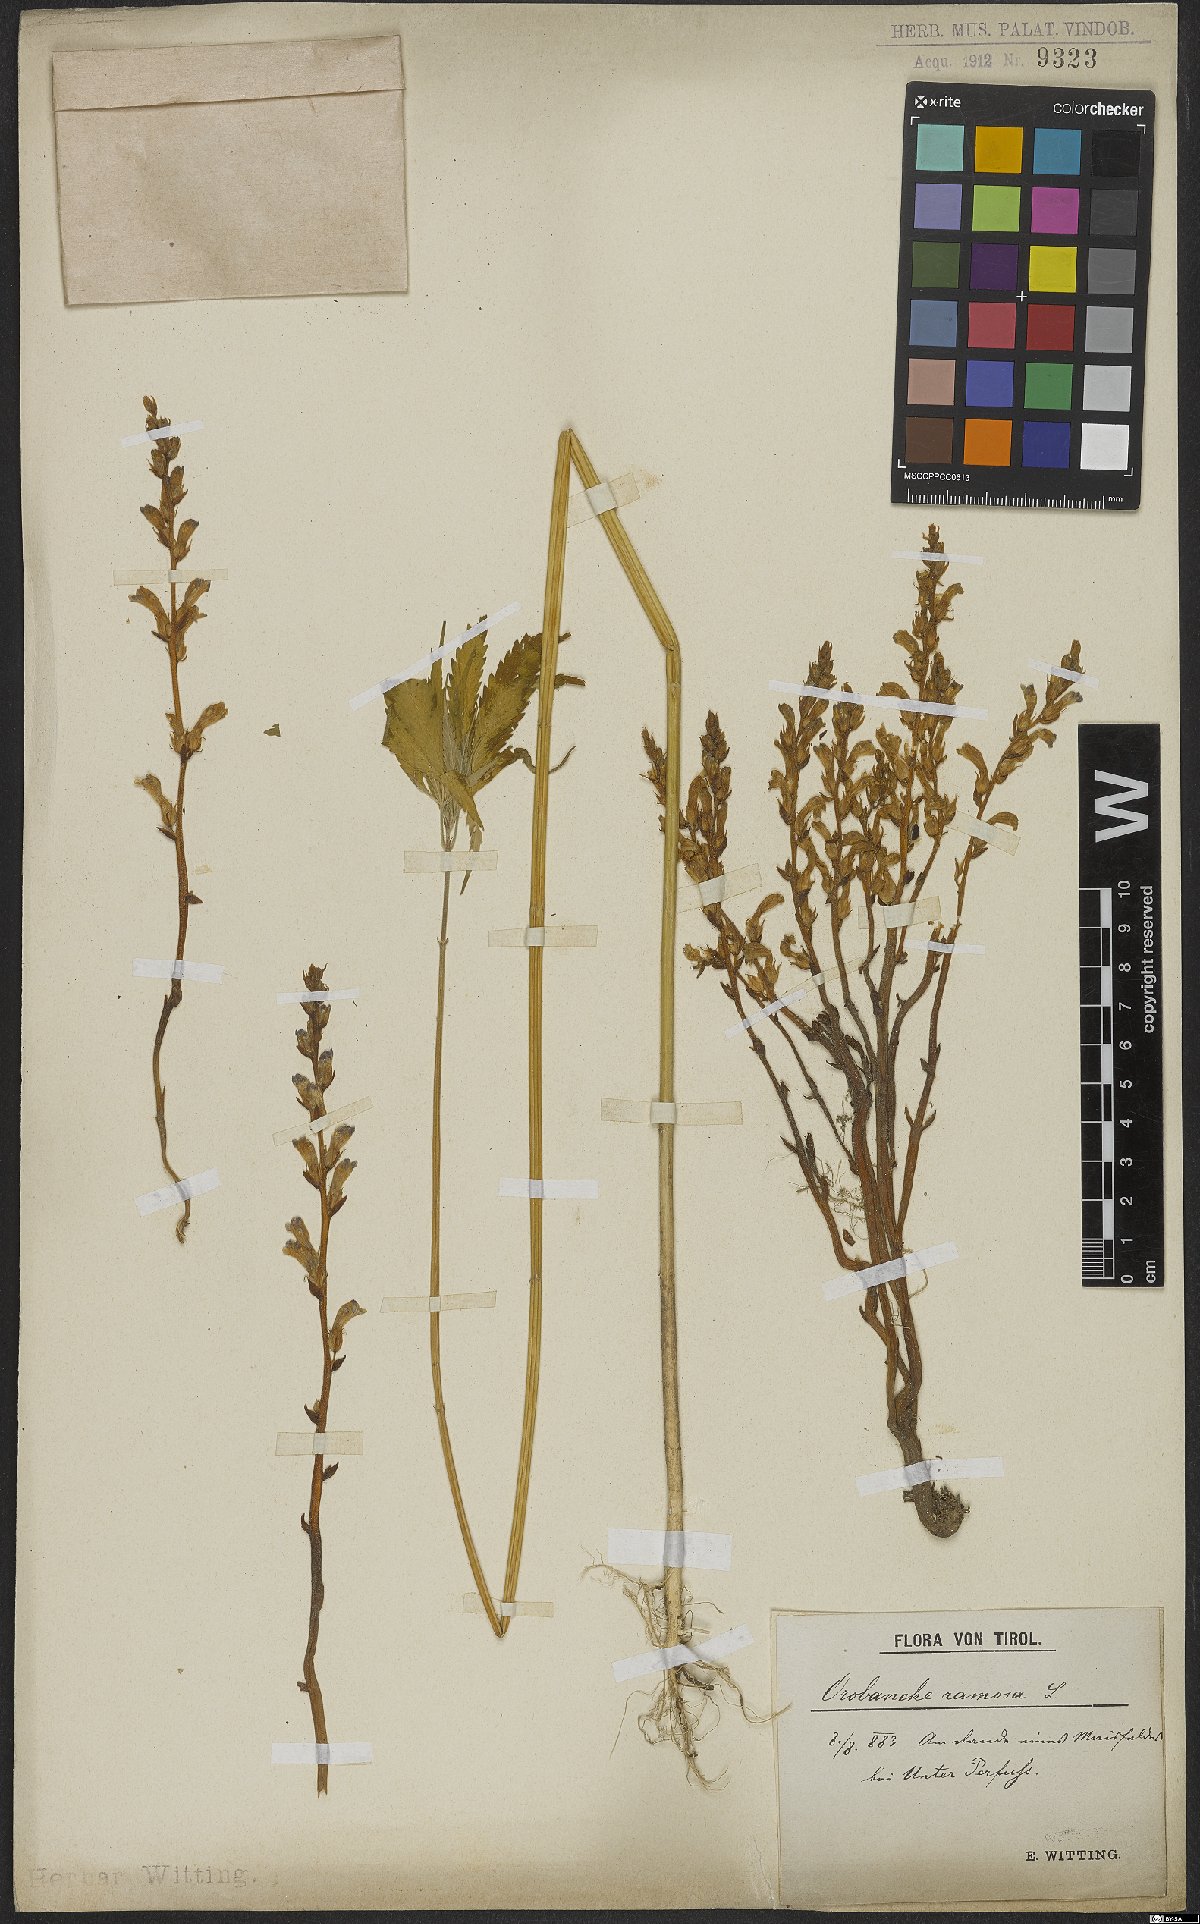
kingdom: Plantae
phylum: Tracheophyta
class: Magnoliopsida
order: Lamiales
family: Orobanchaceae
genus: Phelipanche
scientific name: Phelipanche ramosa
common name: Branched broomrape
